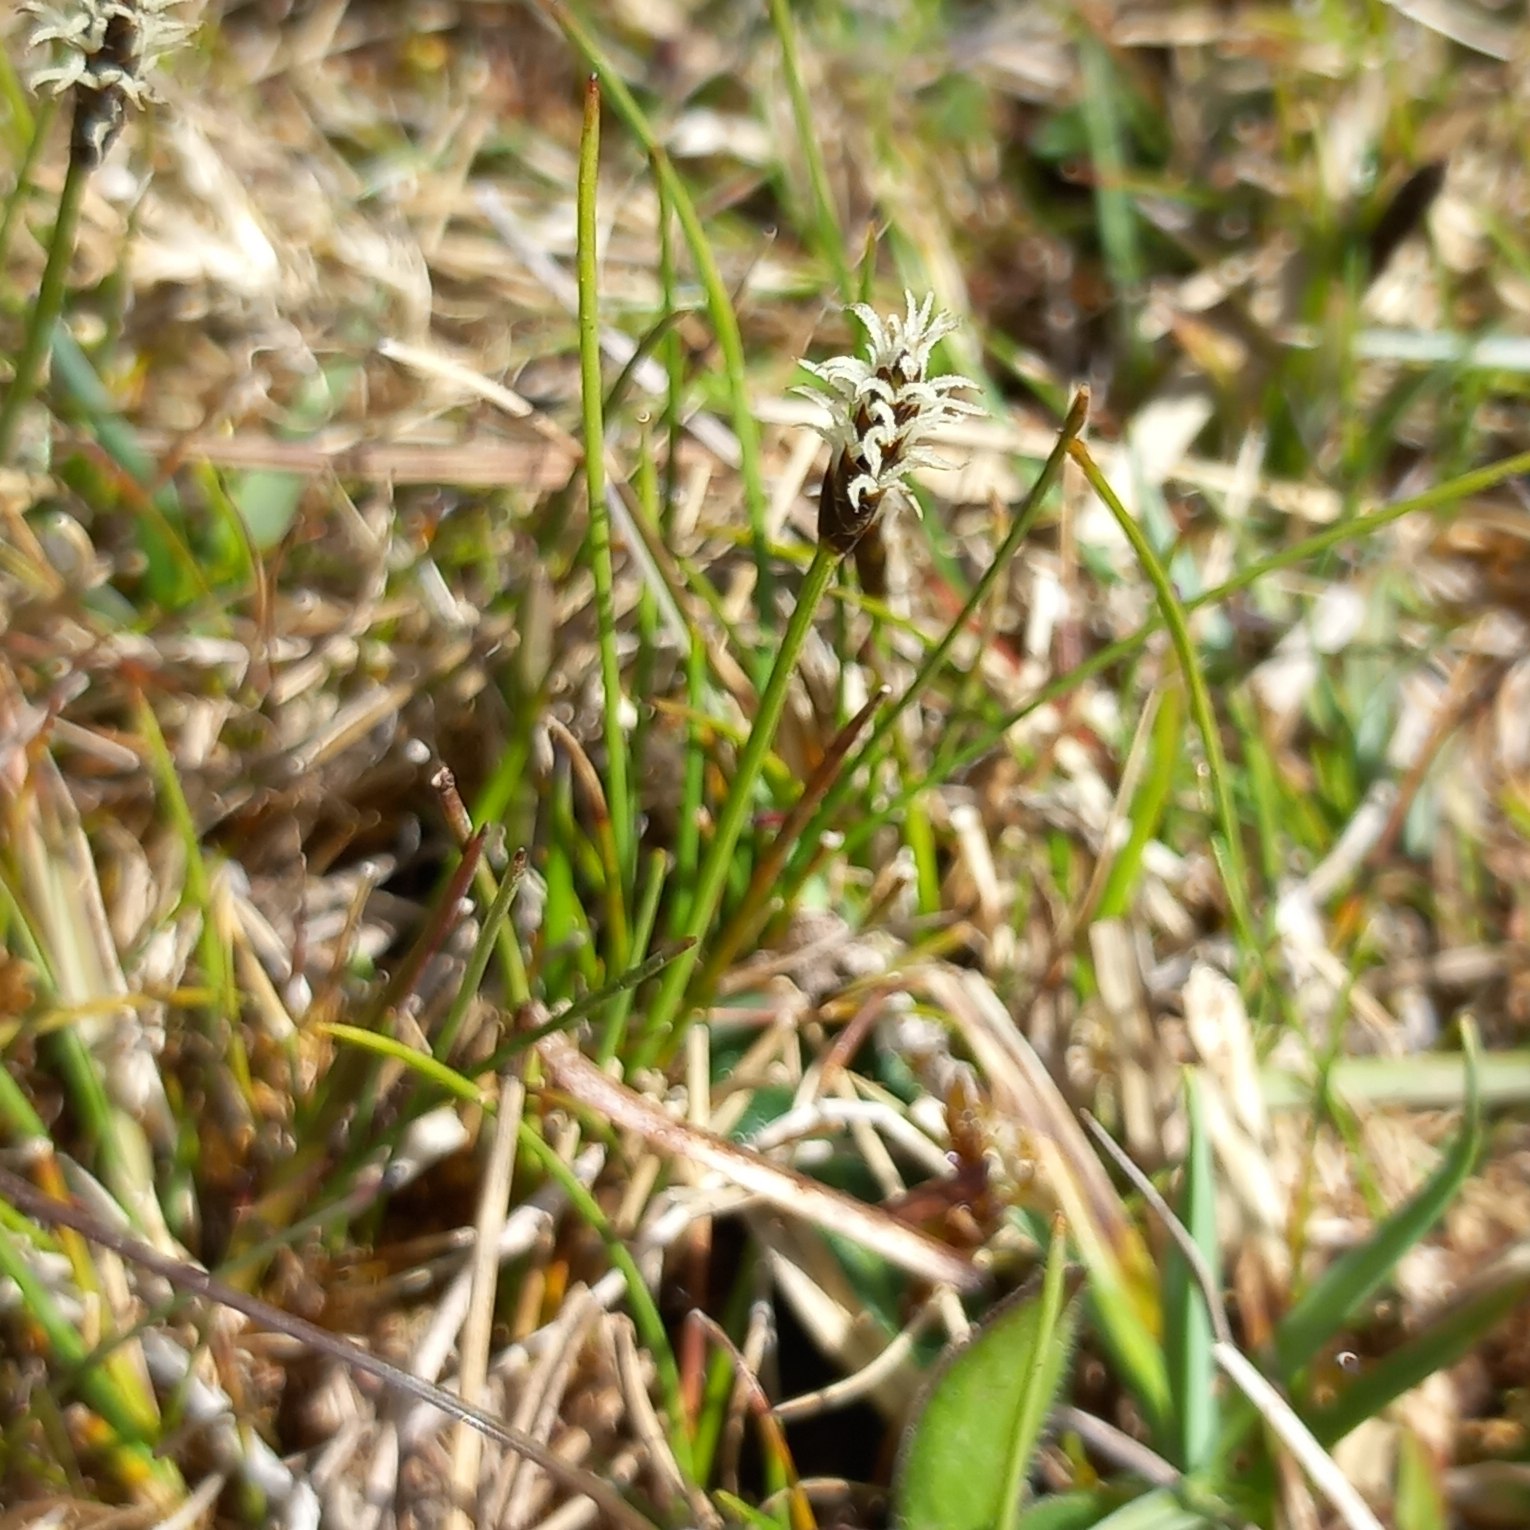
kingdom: Plantae
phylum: Tracheophyta
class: Liliopsida
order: Poales
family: Cyperaceae
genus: Carex
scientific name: Carex dioica
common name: Tvebo star
